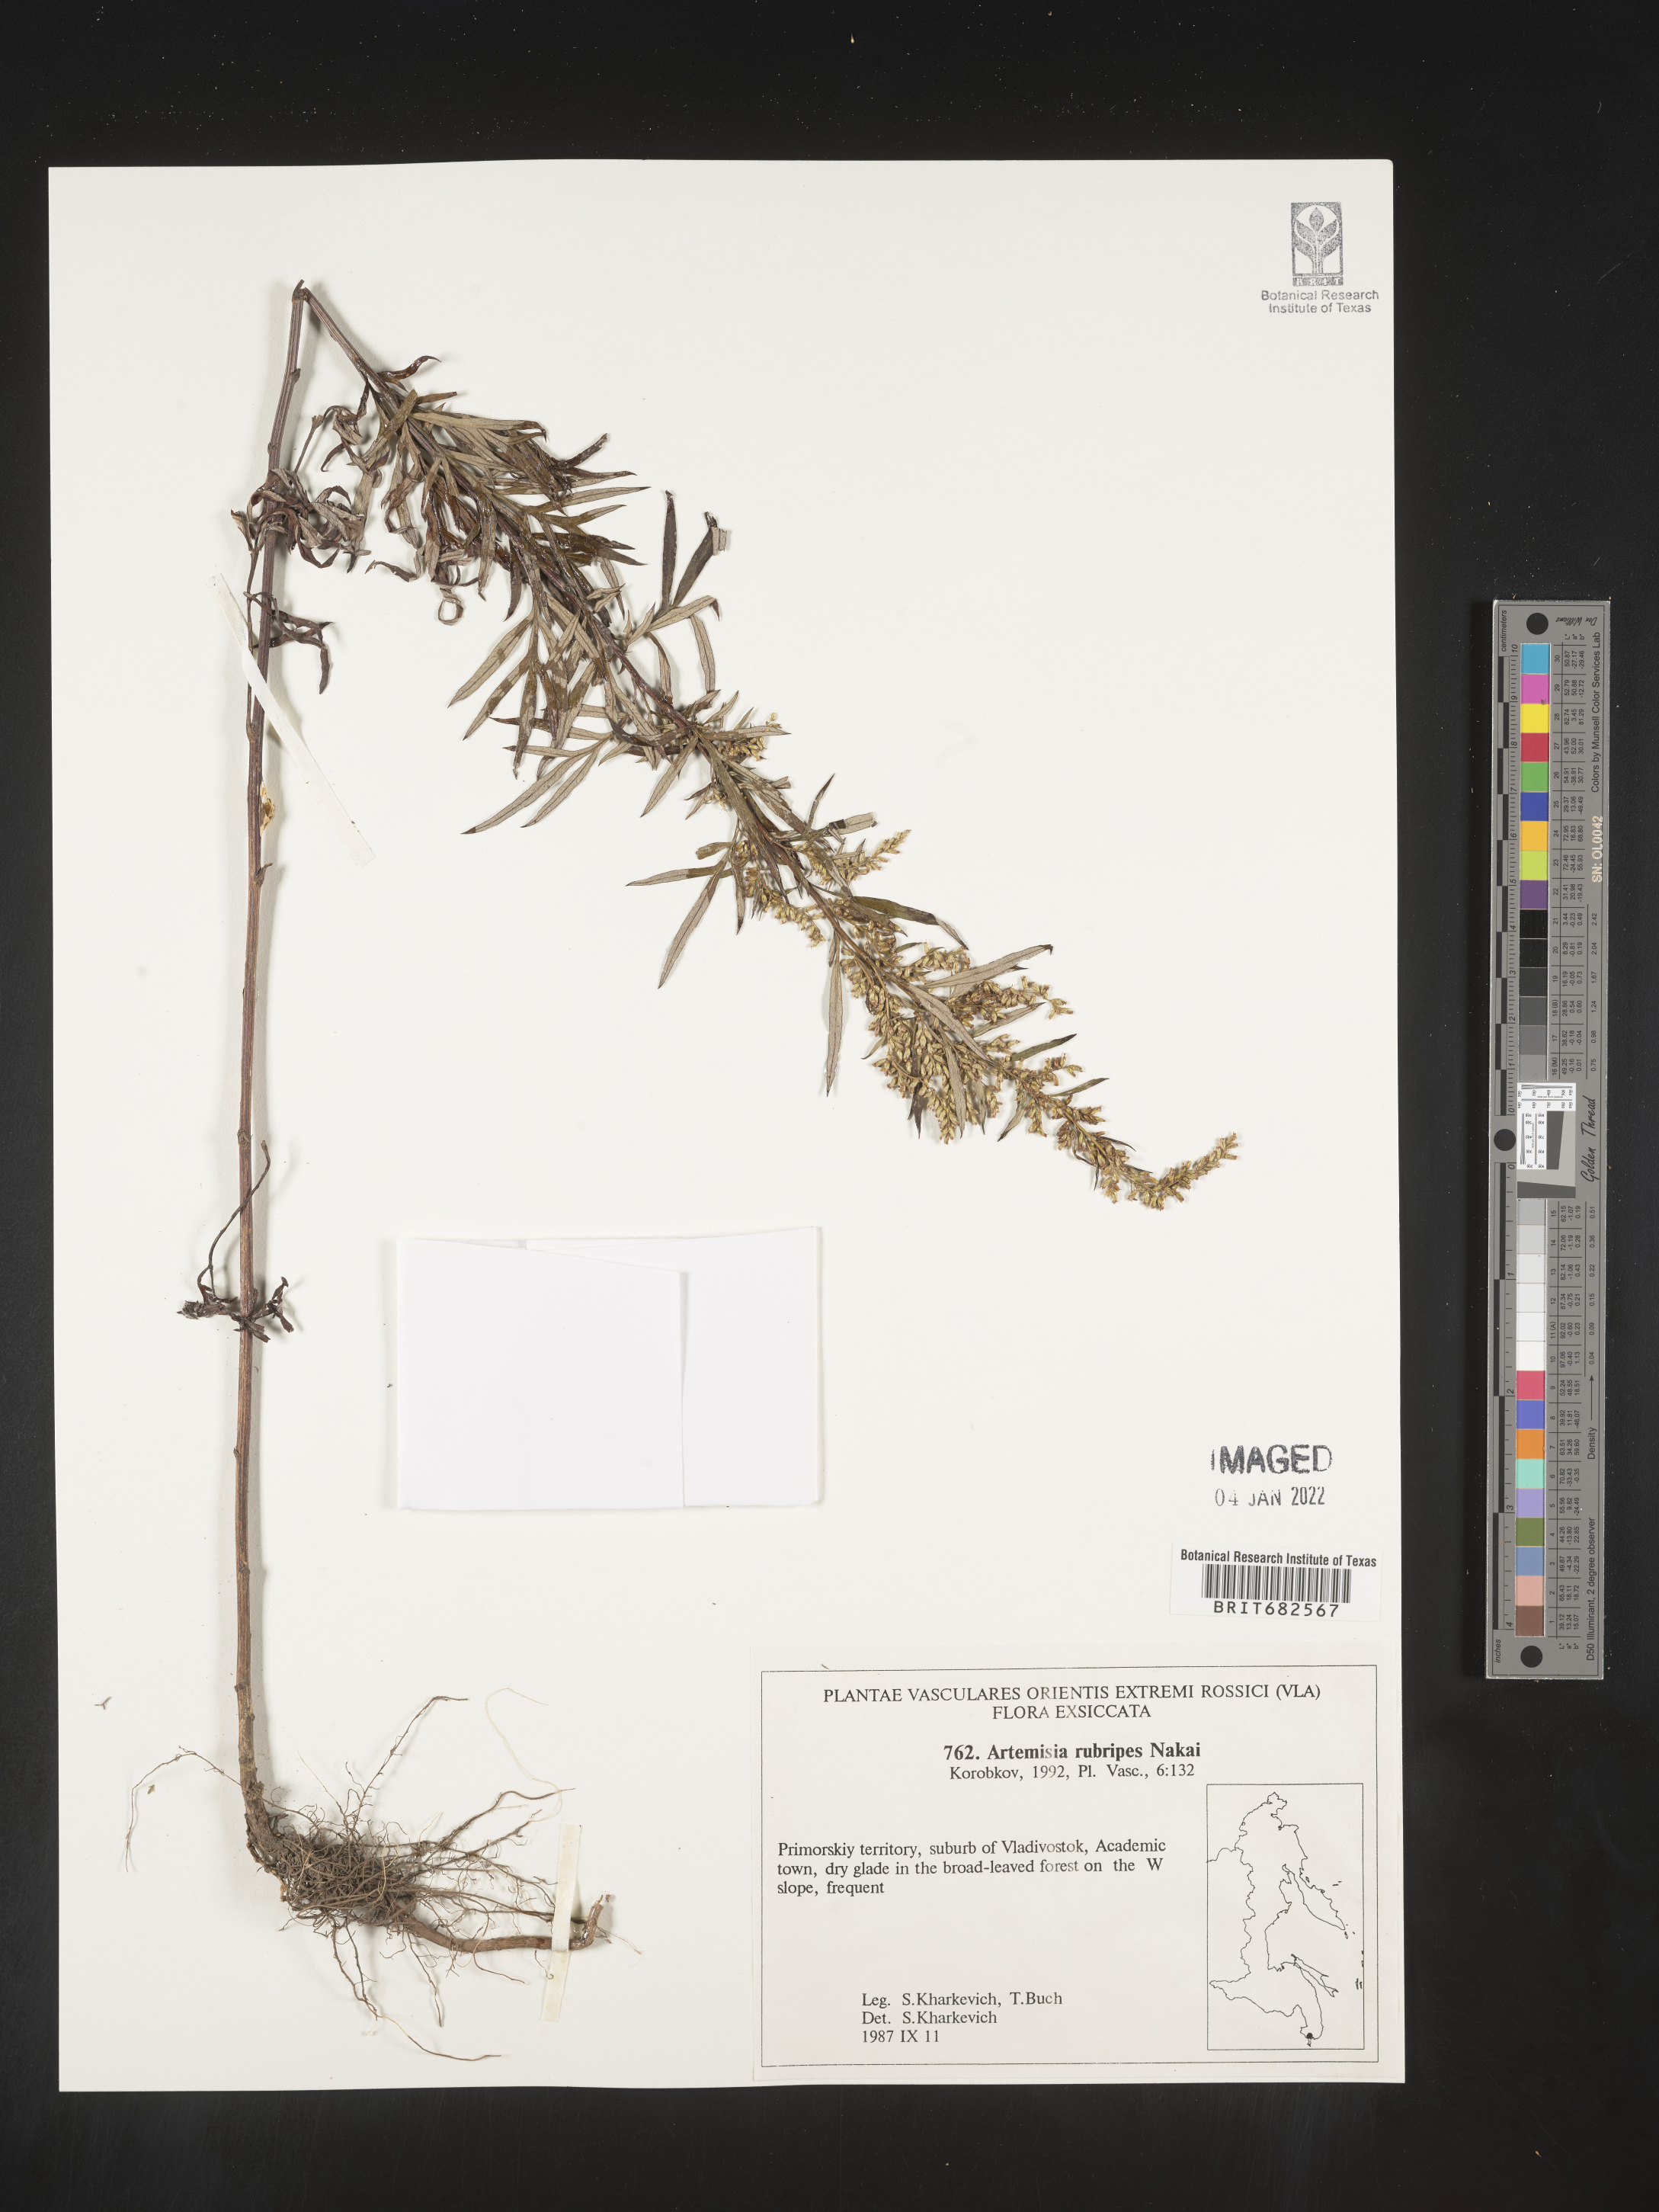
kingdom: Plantae
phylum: Tracheophyta
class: Magnoliopsida
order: Asterales
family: Asteraceae
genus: Artemisia
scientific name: Artemisia
